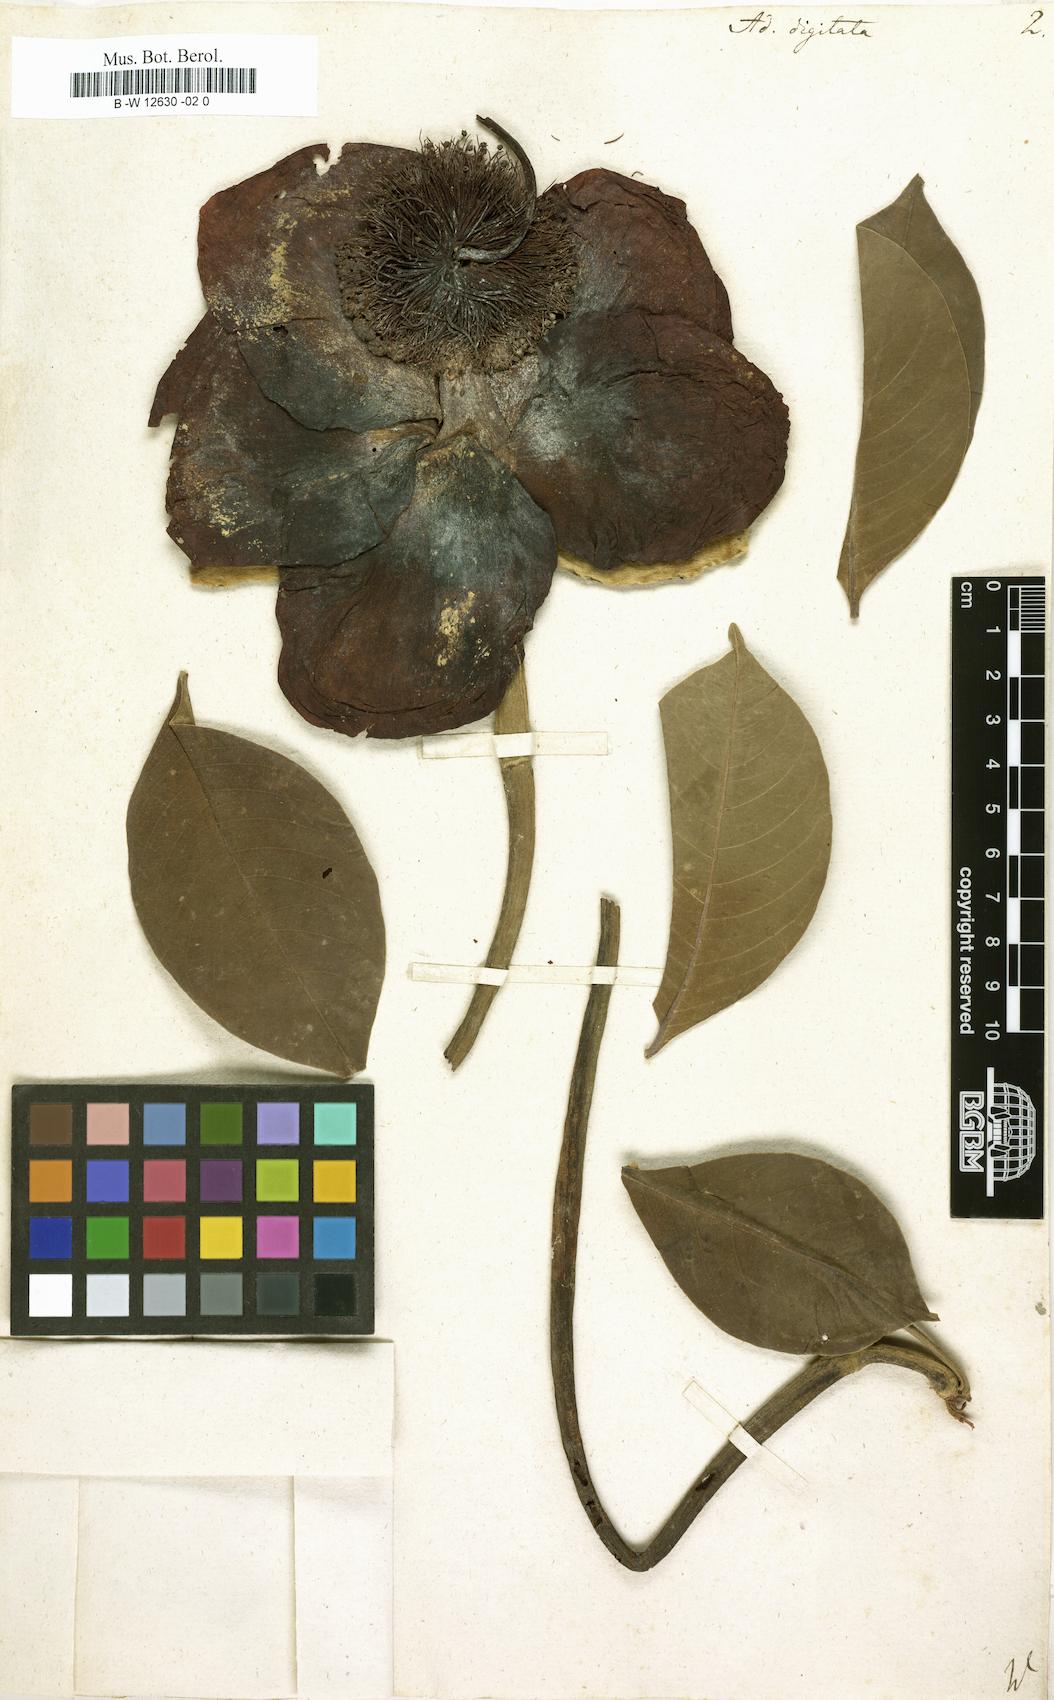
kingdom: Plantae
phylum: Tracheophyta
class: Magnoliopsida
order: Malvales
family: Malvaceae
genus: Adansonia
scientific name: Adansonia digitata
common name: Dead-rat-tree
